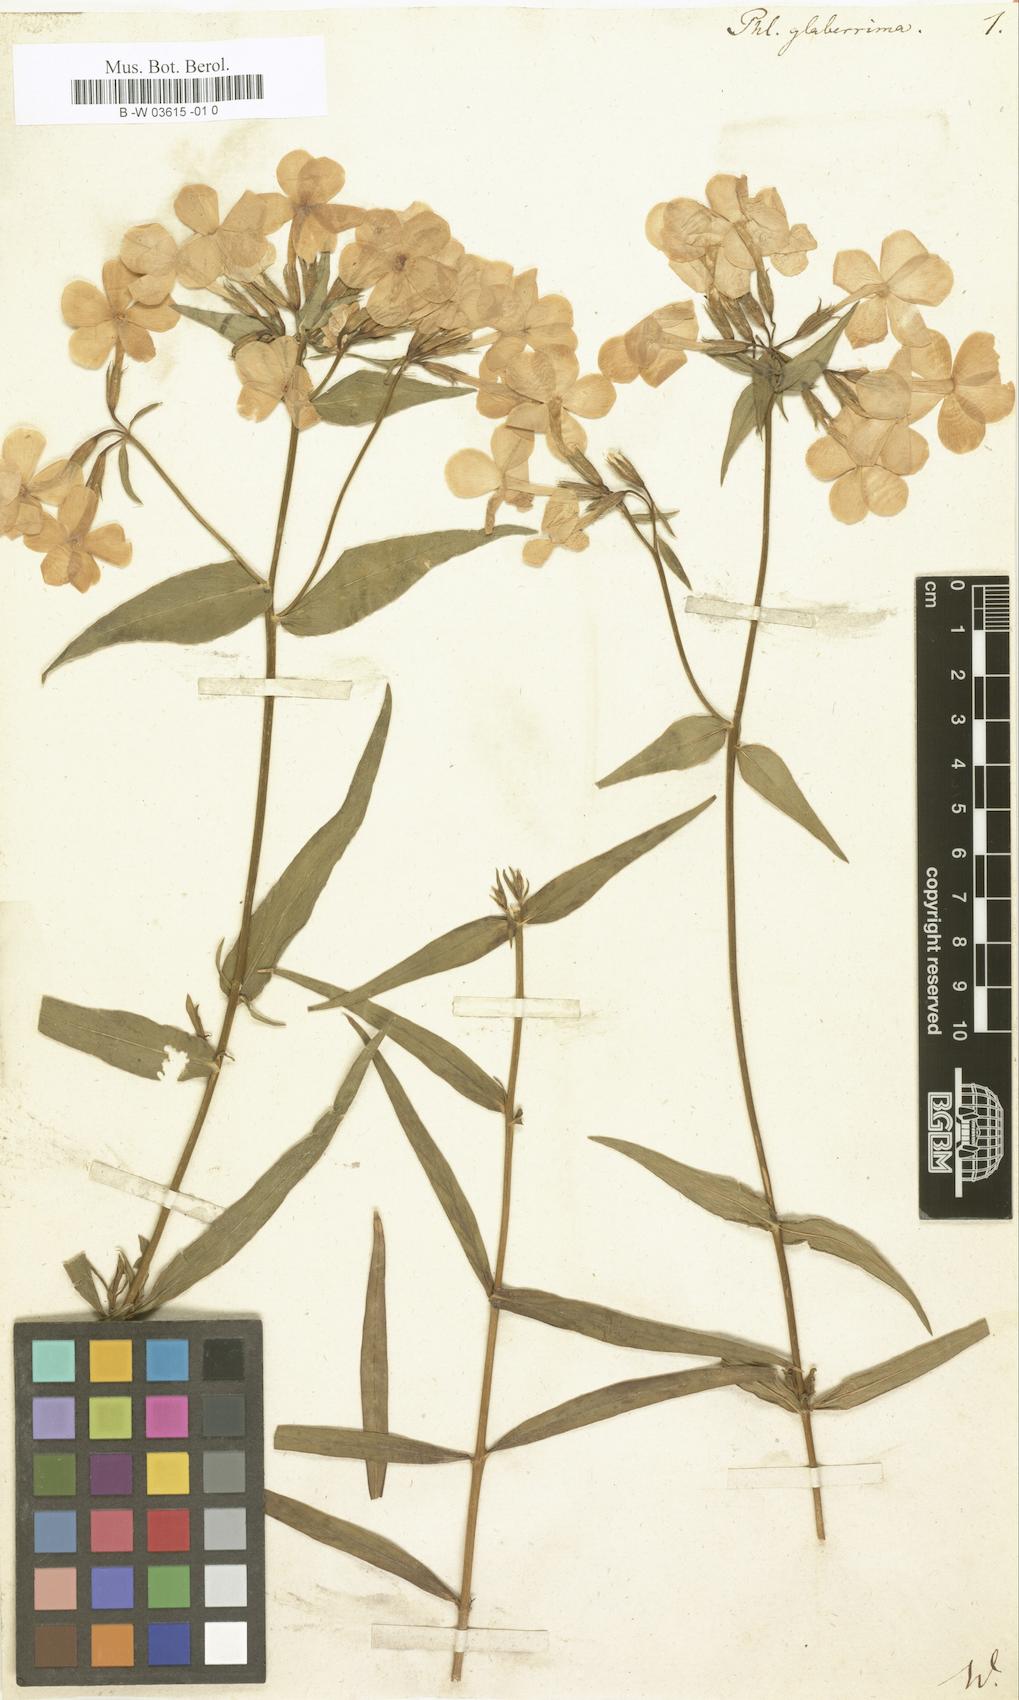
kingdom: Plantae
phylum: Tracheophyta
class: Magnoliopsida
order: Ericales
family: Polemoniaceae
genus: Phlox
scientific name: Phlox glaberrima
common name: Smooth phlox
